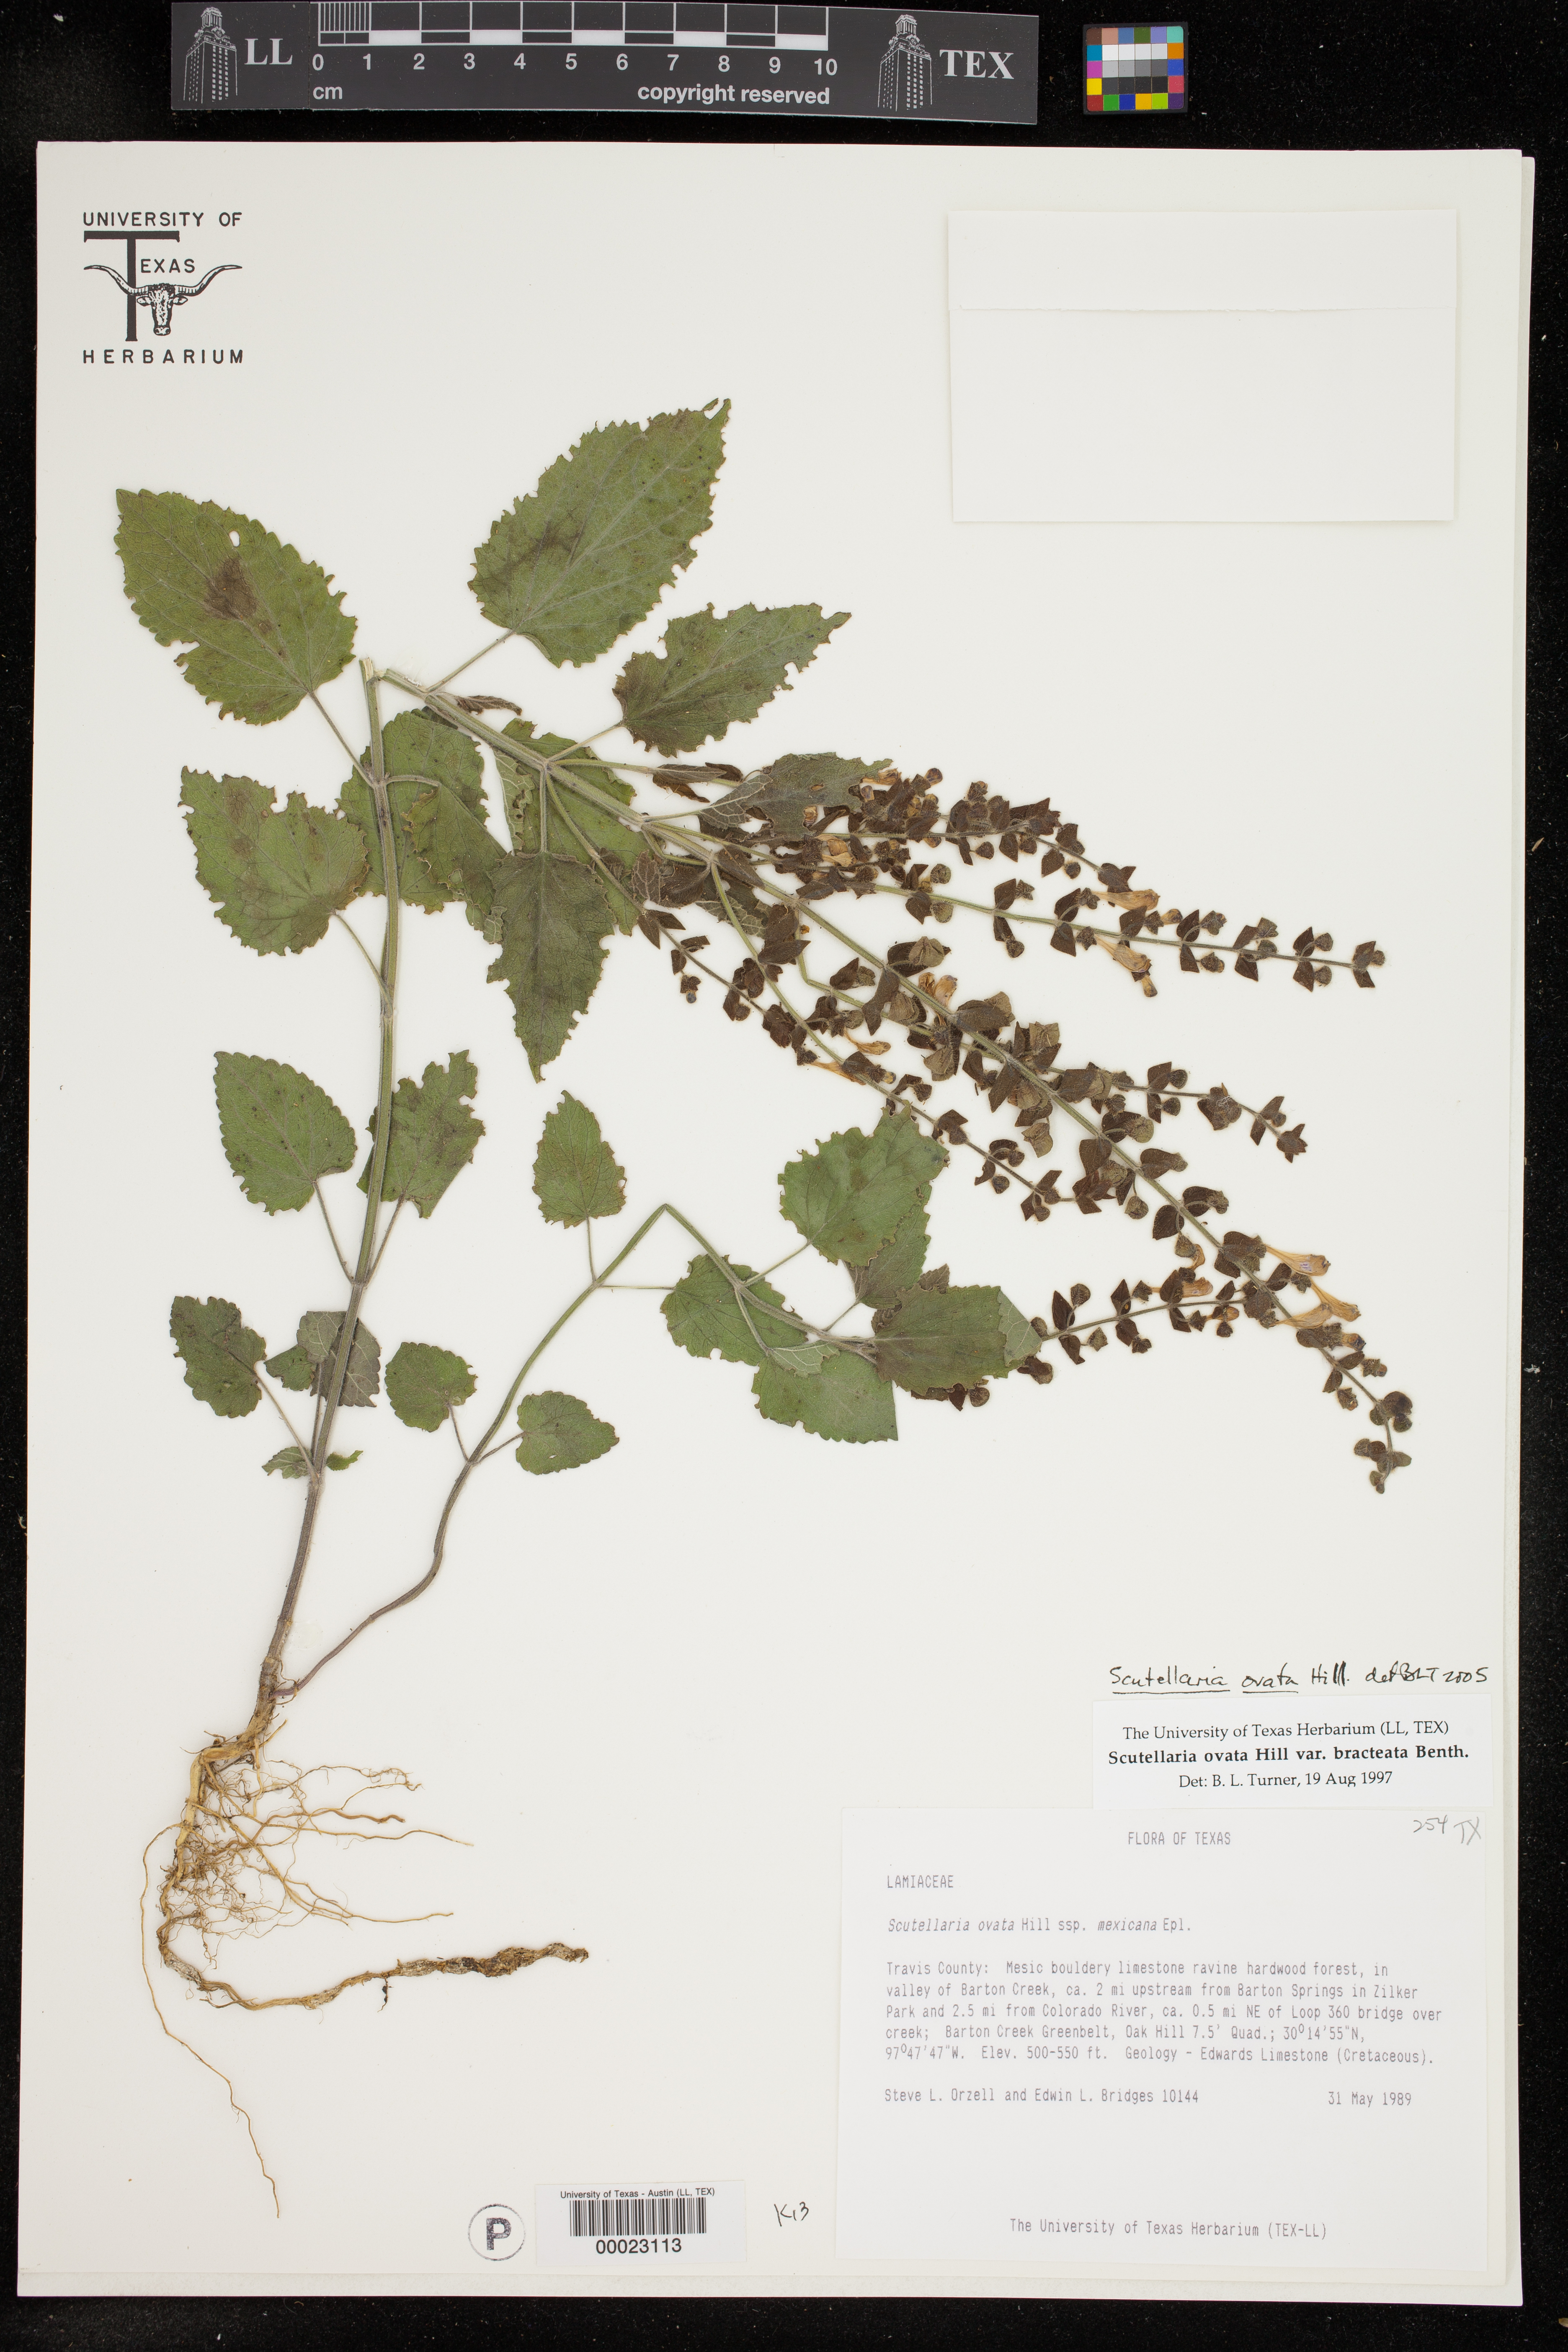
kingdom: Plantae
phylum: Tracheophyta
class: Magnoliopsida
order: Lamiales
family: Lamiaceae
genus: Scutellaria
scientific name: Scutellaria ovata
